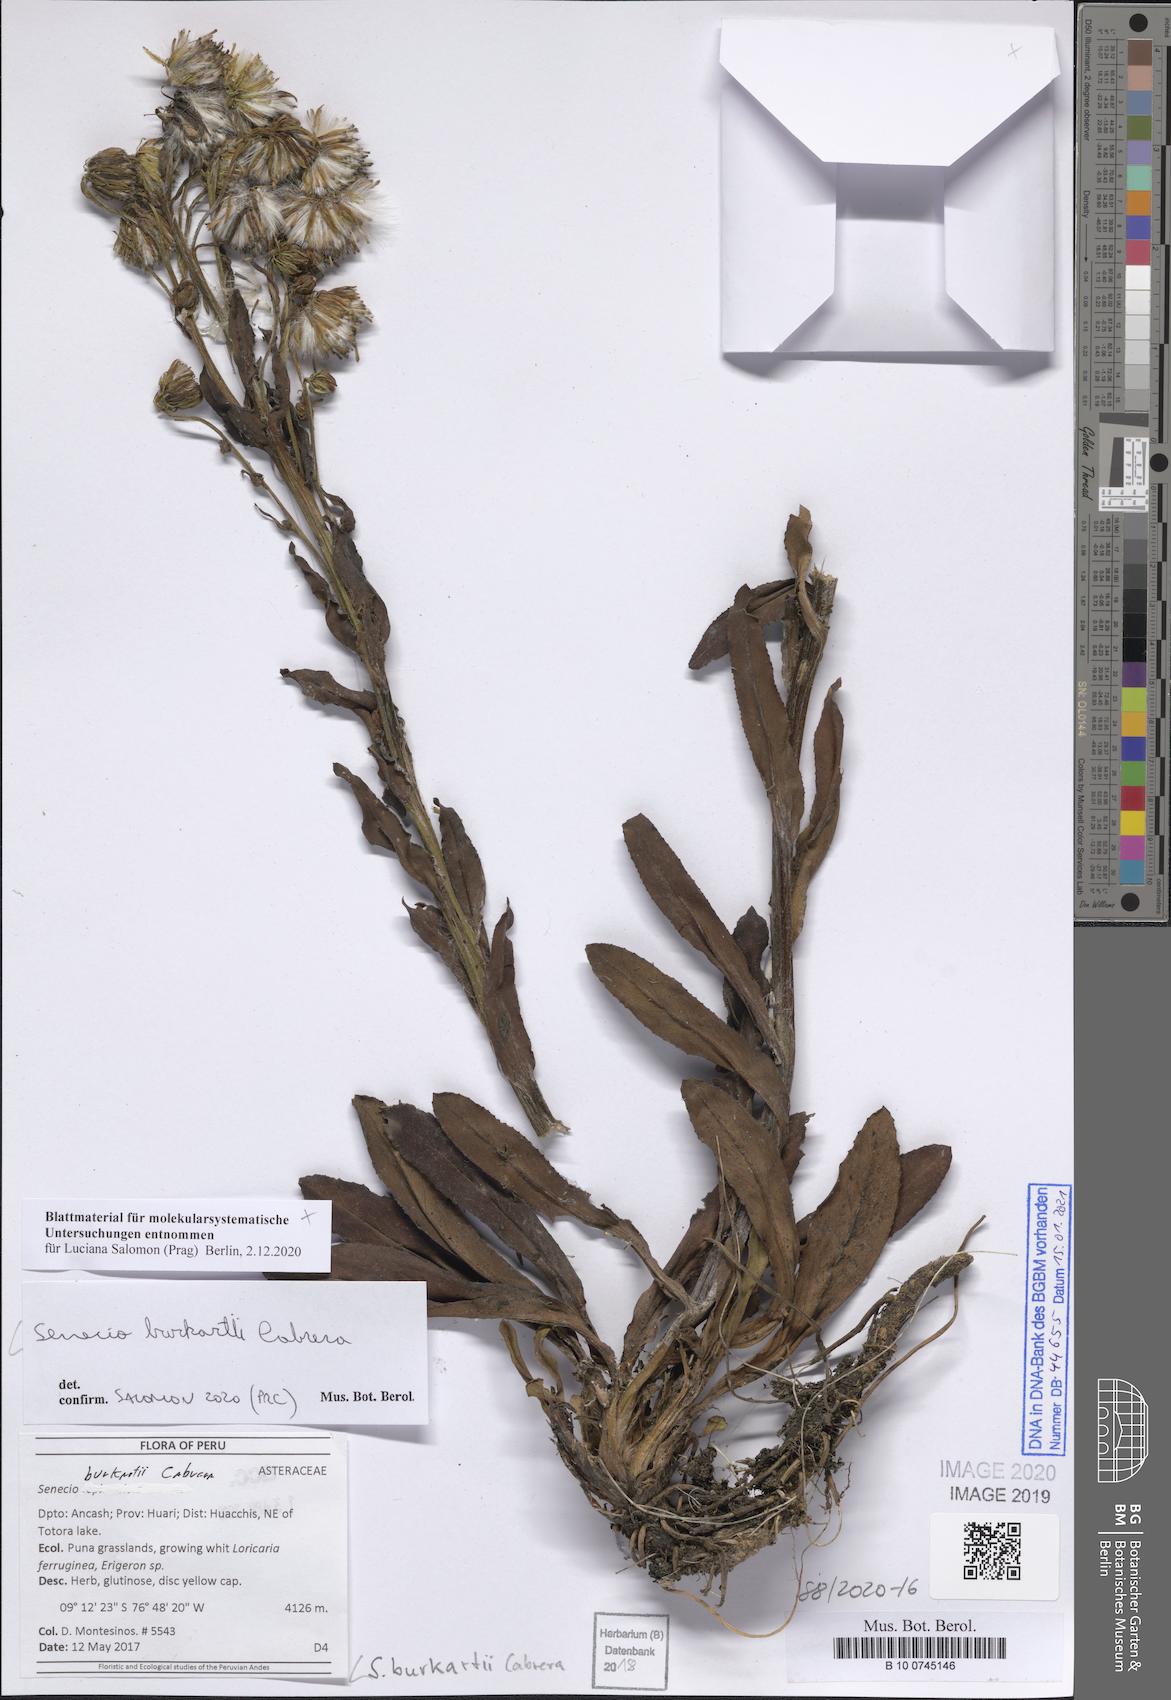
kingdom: Plantae
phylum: Tracheophyta
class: Magnoliopsida
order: Asterales
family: Asteraceae
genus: Senecio
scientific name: Senecio burkartii
